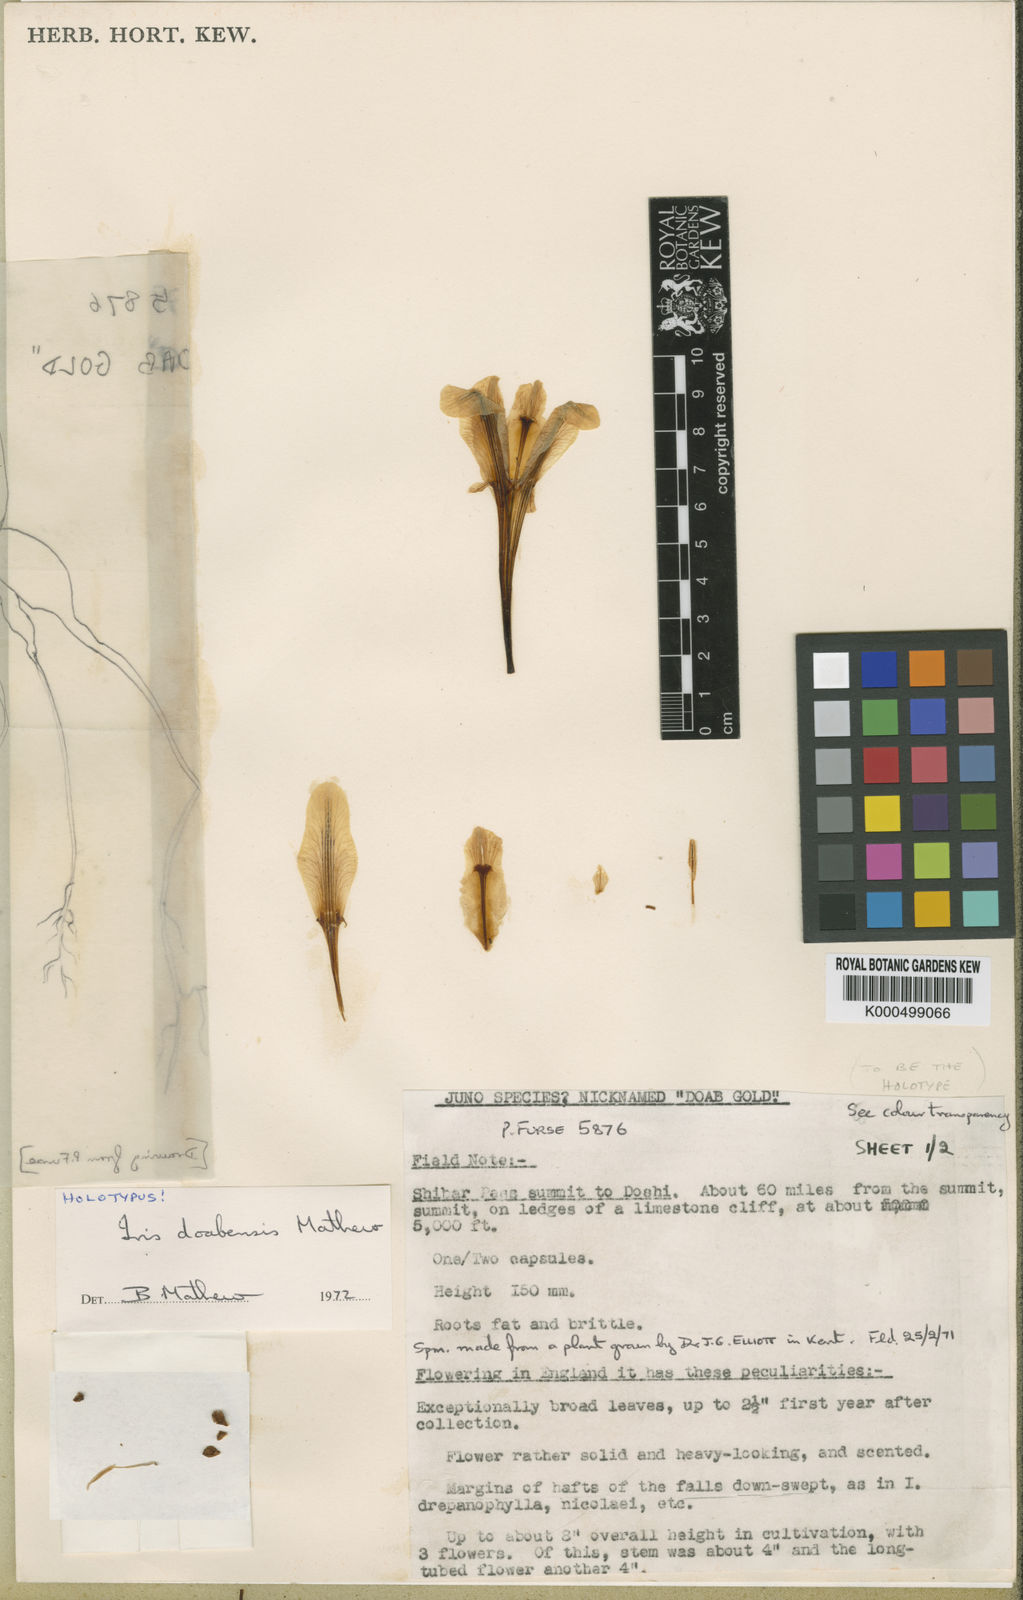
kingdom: Plantae
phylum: Tracheophyta
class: Liliopsida
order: Asparagales
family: Iridaceae
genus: Iris
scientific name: Iris doabensis
